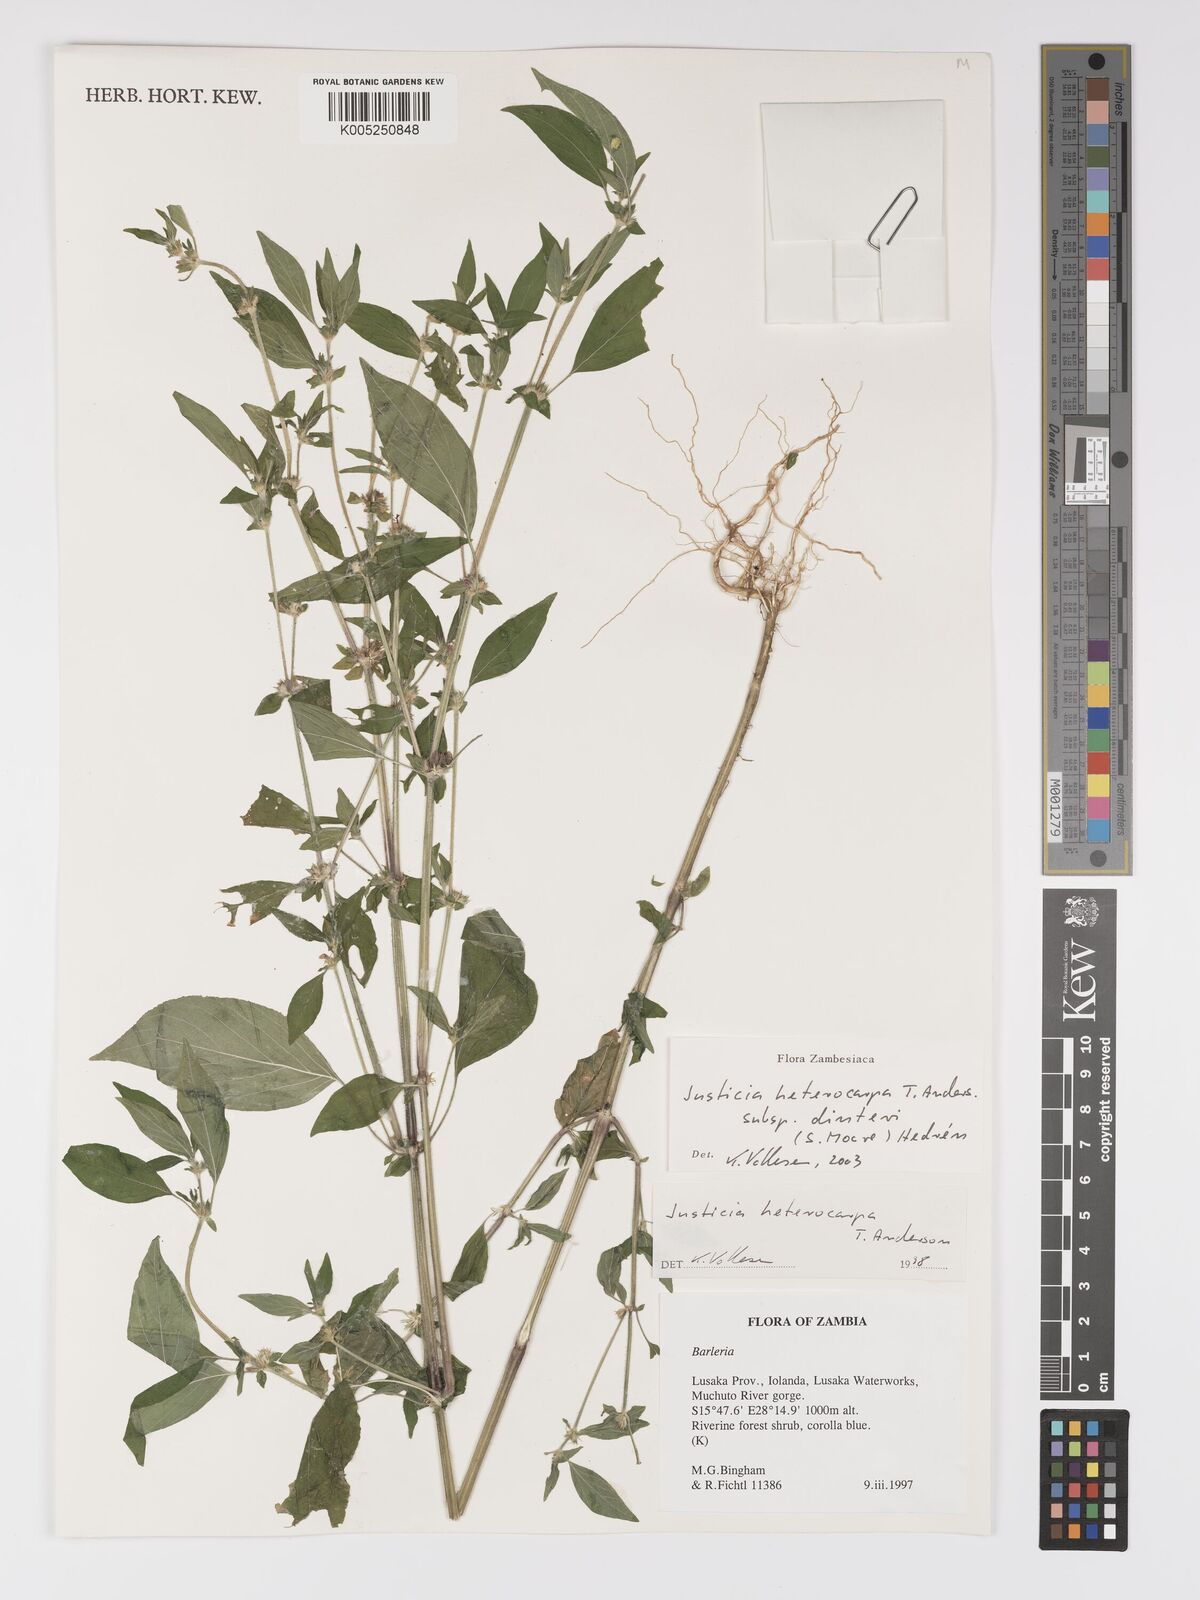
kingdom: Plantae
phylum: Tracheophyta
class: Magnoliopsida
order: Lamiales
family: Acanthaceae
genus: Justicia
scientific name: Justicia heterocarpa
